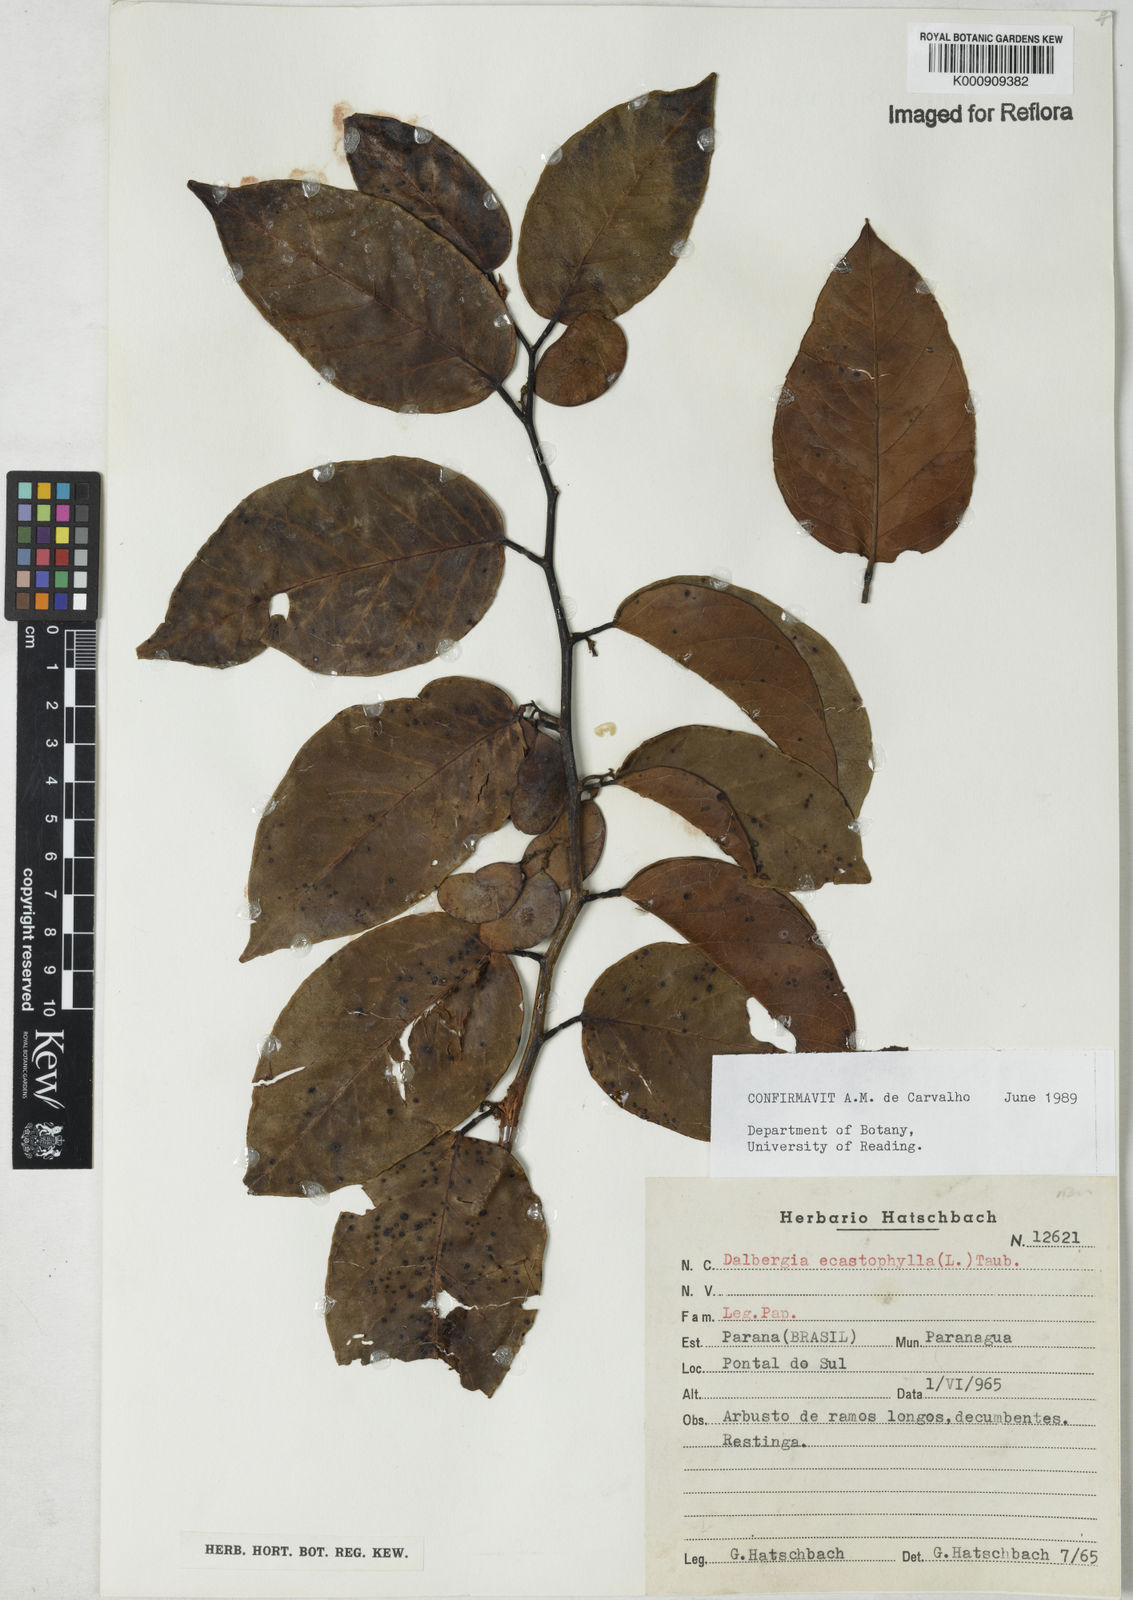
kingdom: Plantae
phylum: Tracheophyta
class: Magnoliopsida
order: Fabales
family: Fabaceae
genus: Dalbergia
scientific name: Dalbergia ecastaphyllum
